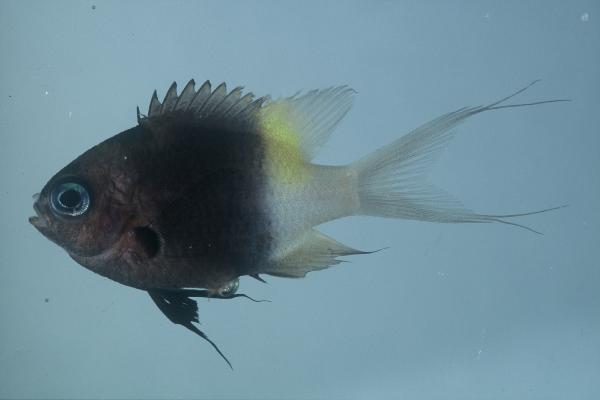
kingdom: Animalia
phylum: Chordata
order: Perciformes
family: Pomacentridae
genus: Chromis
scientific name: Chromis dimidiata
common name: Half-and-half chromis
